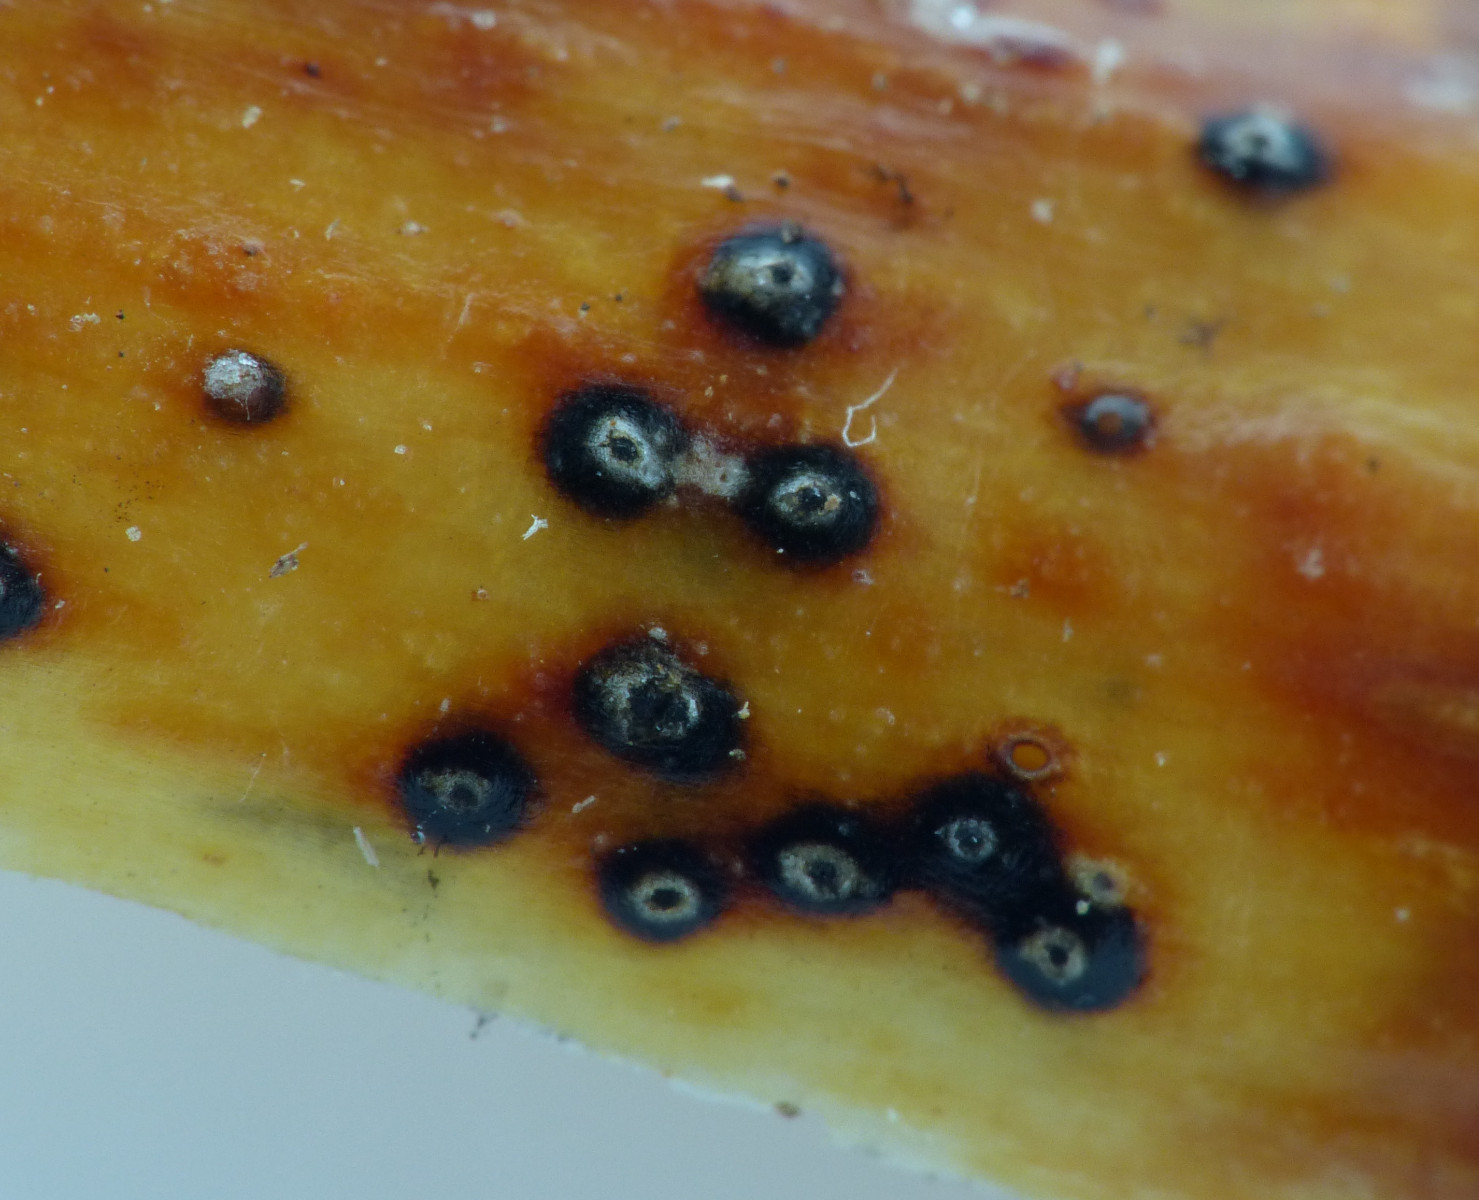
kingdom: Fungi
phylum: Ascomycota
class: Sordariomycetes
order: Amphisphaeriales
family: Clypeosphaeriaceae
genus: Clypeosphaeria
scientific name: Clypeosphaeria mamillana
